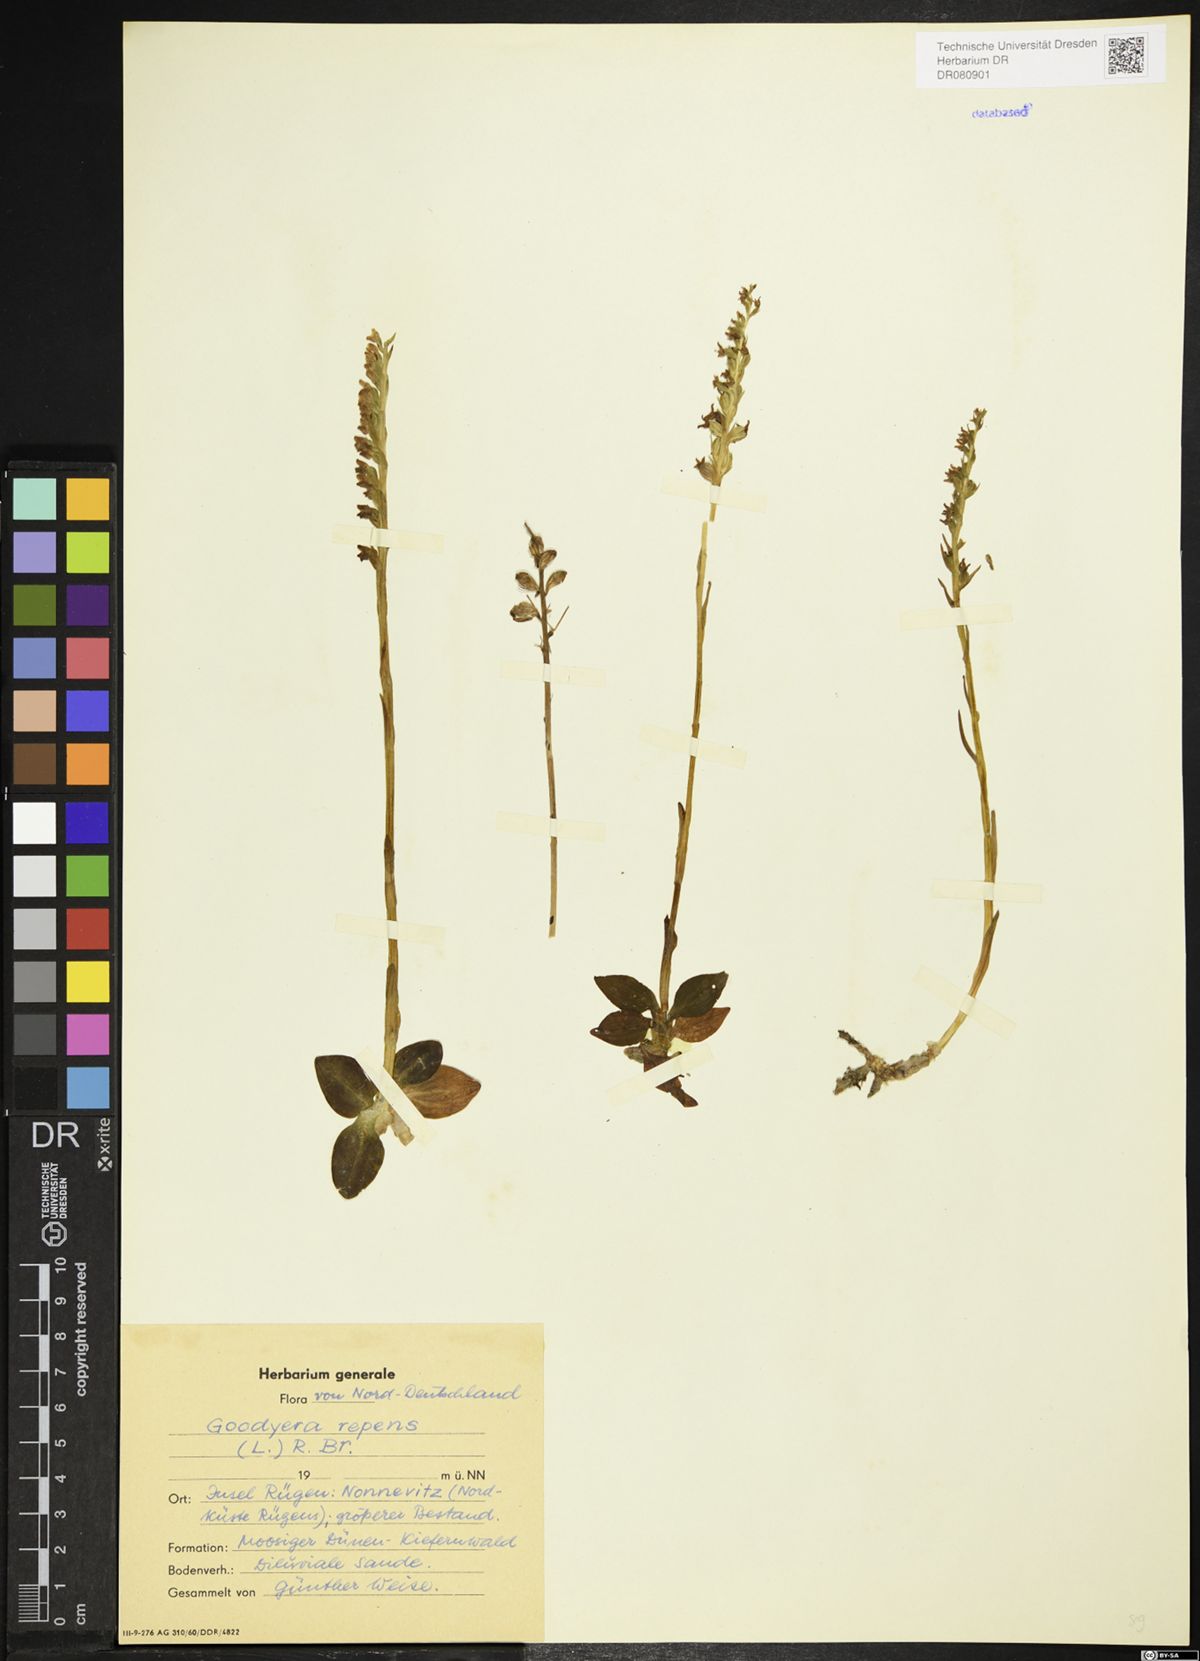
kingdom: Plantae
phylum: Tracheophyta
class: Liliopsida
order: Asparagales
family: Orchidaceae
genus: Goodyera
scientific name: Goodyera repens
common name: Creeping lady's-tresses
